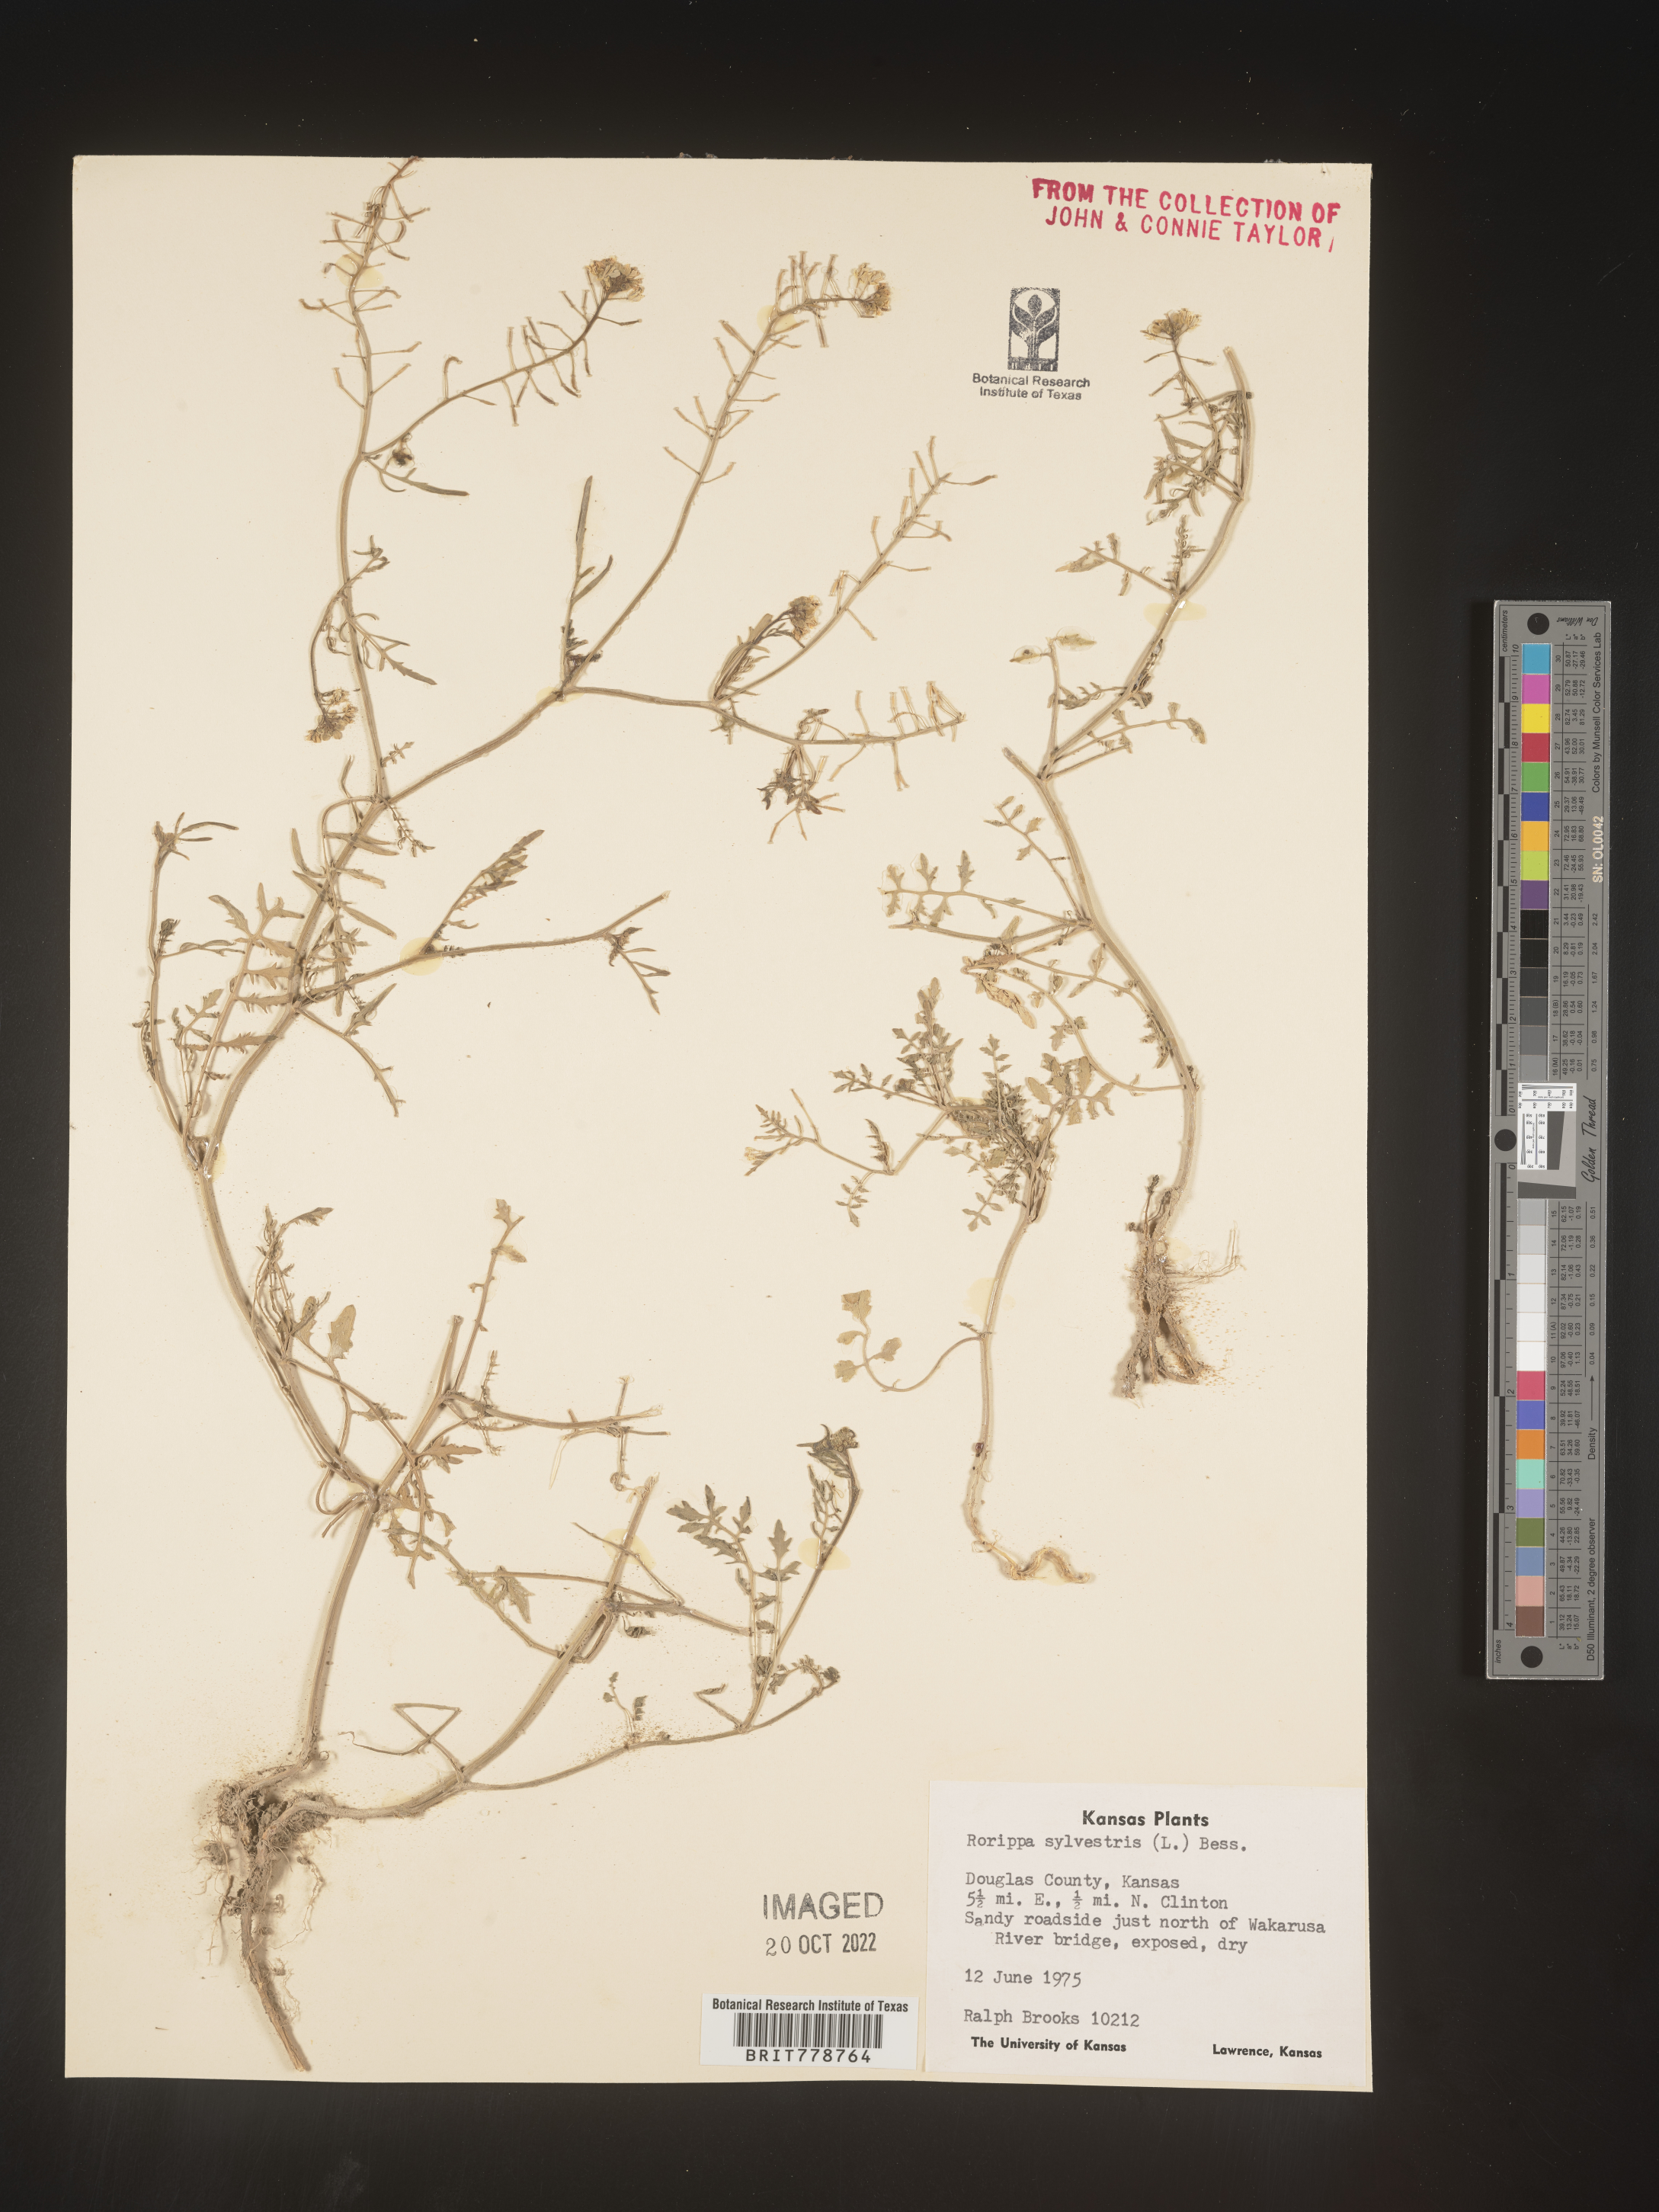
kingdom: Plantae
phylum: Tracheophyta
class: Magnoliopsida
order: Brassicales
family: Brassicaceae
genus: Rorippa
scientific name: Rorippa sylvestris
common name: Creeping yellowcress
